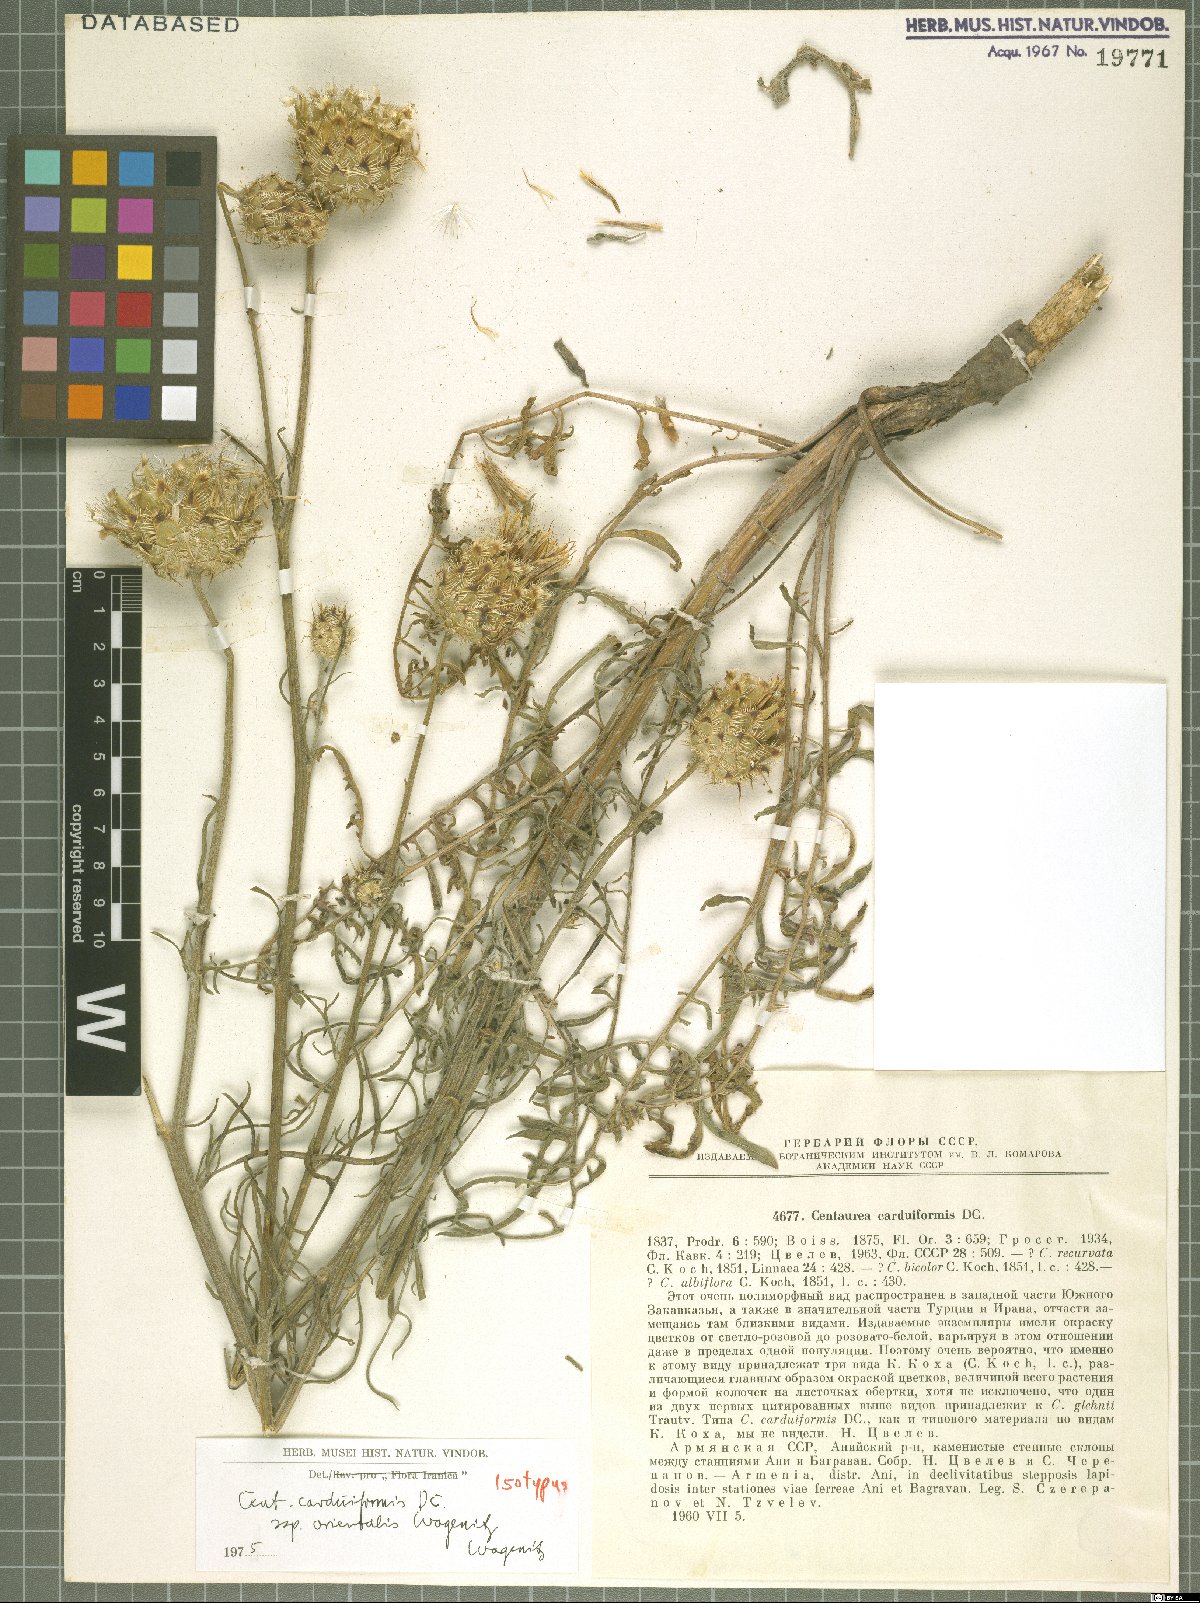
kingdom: Plantae
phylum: Tracheophyta
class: Magnoliopsida
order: Asterales
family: Asteraceae
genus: Centaurea
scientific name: Centaurea carduiformis
